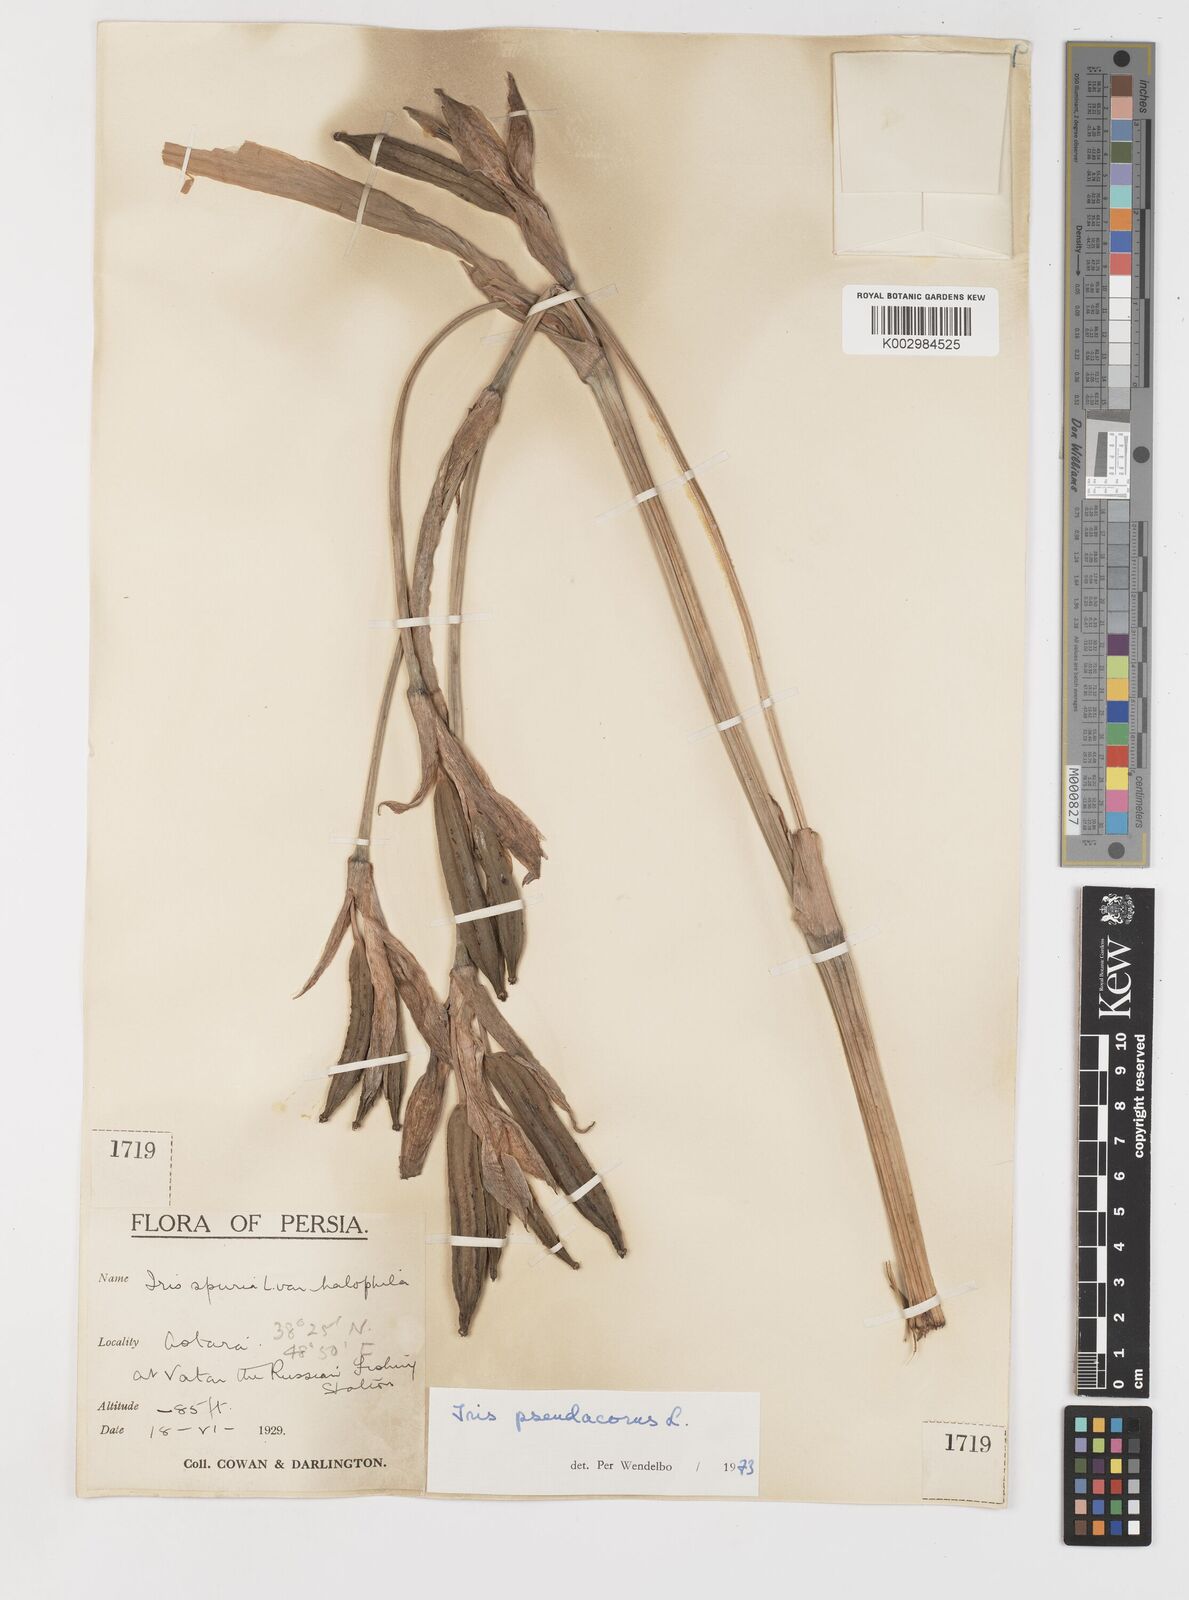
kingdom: Plantae
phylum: Tracheophyta
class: Liliopsida
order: Asparagales
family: Iridaceae
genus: Iris
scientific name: Iris pseudacorus
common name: Yellow flag
